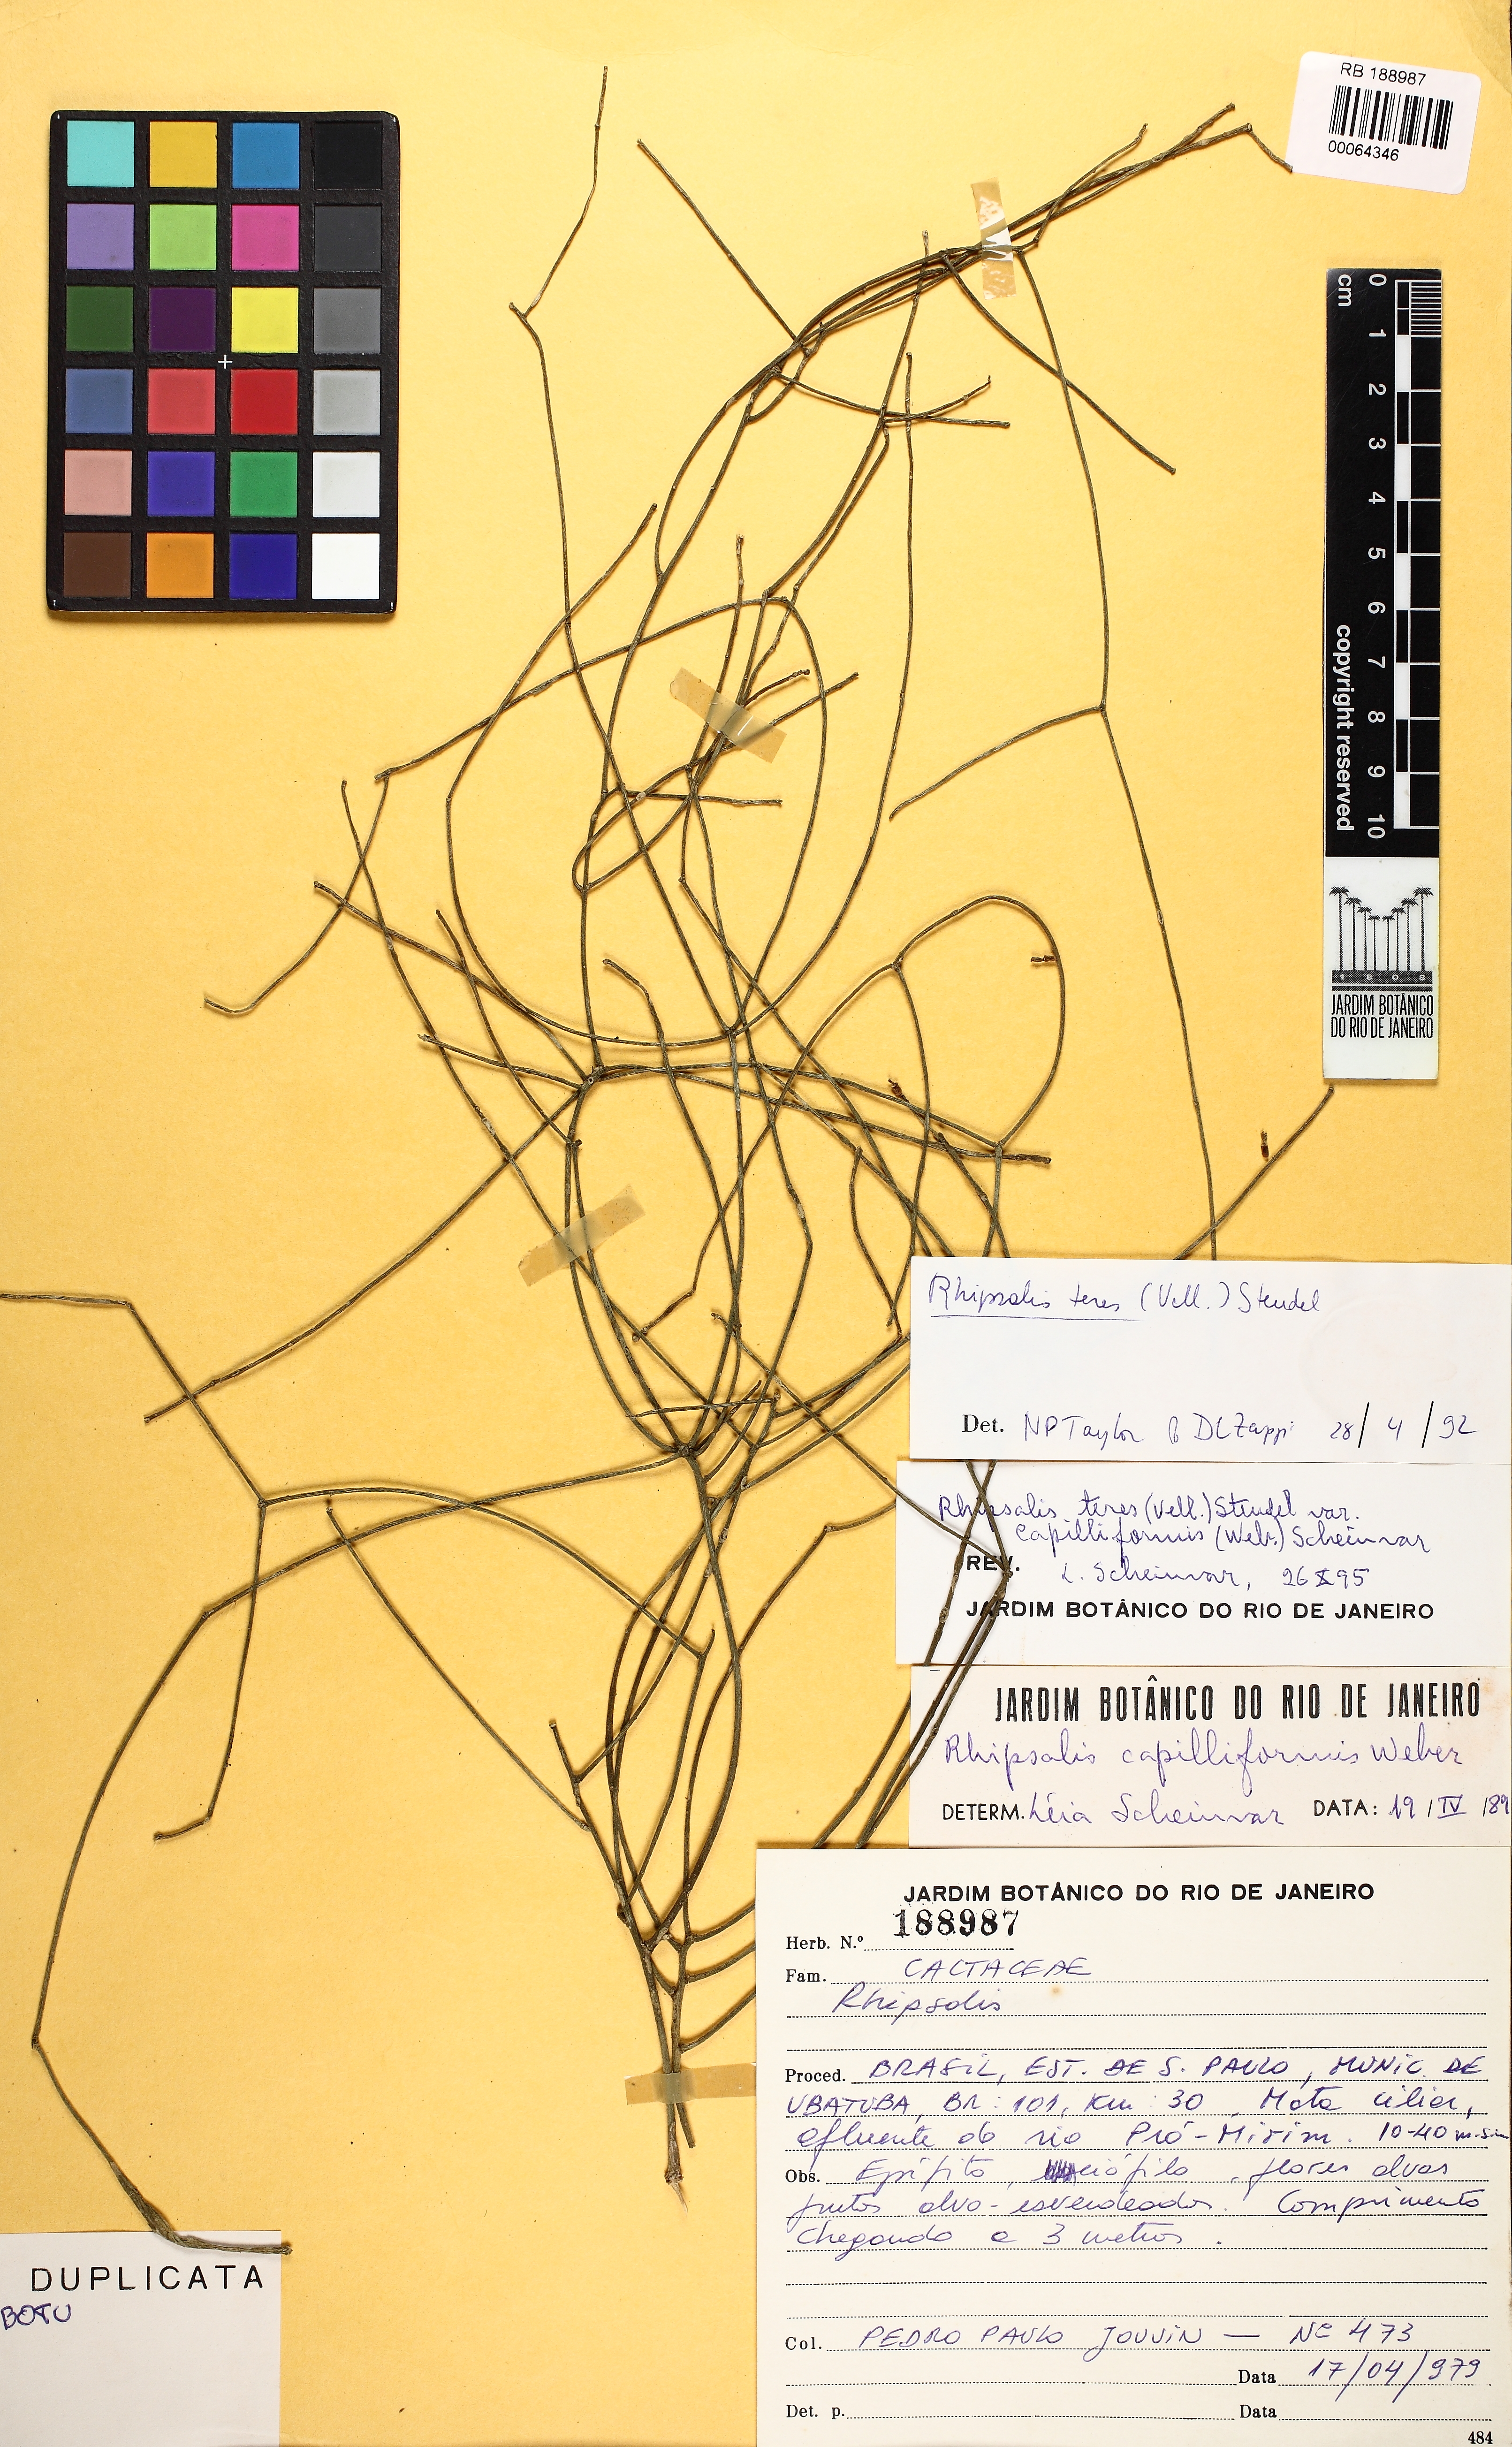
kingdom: Plantae
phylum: Tracheophyta
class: Magnoliopsida
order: Caryophyllales
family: Cactaceae
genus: Rhipsalis
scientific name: Rhipsalis teres
